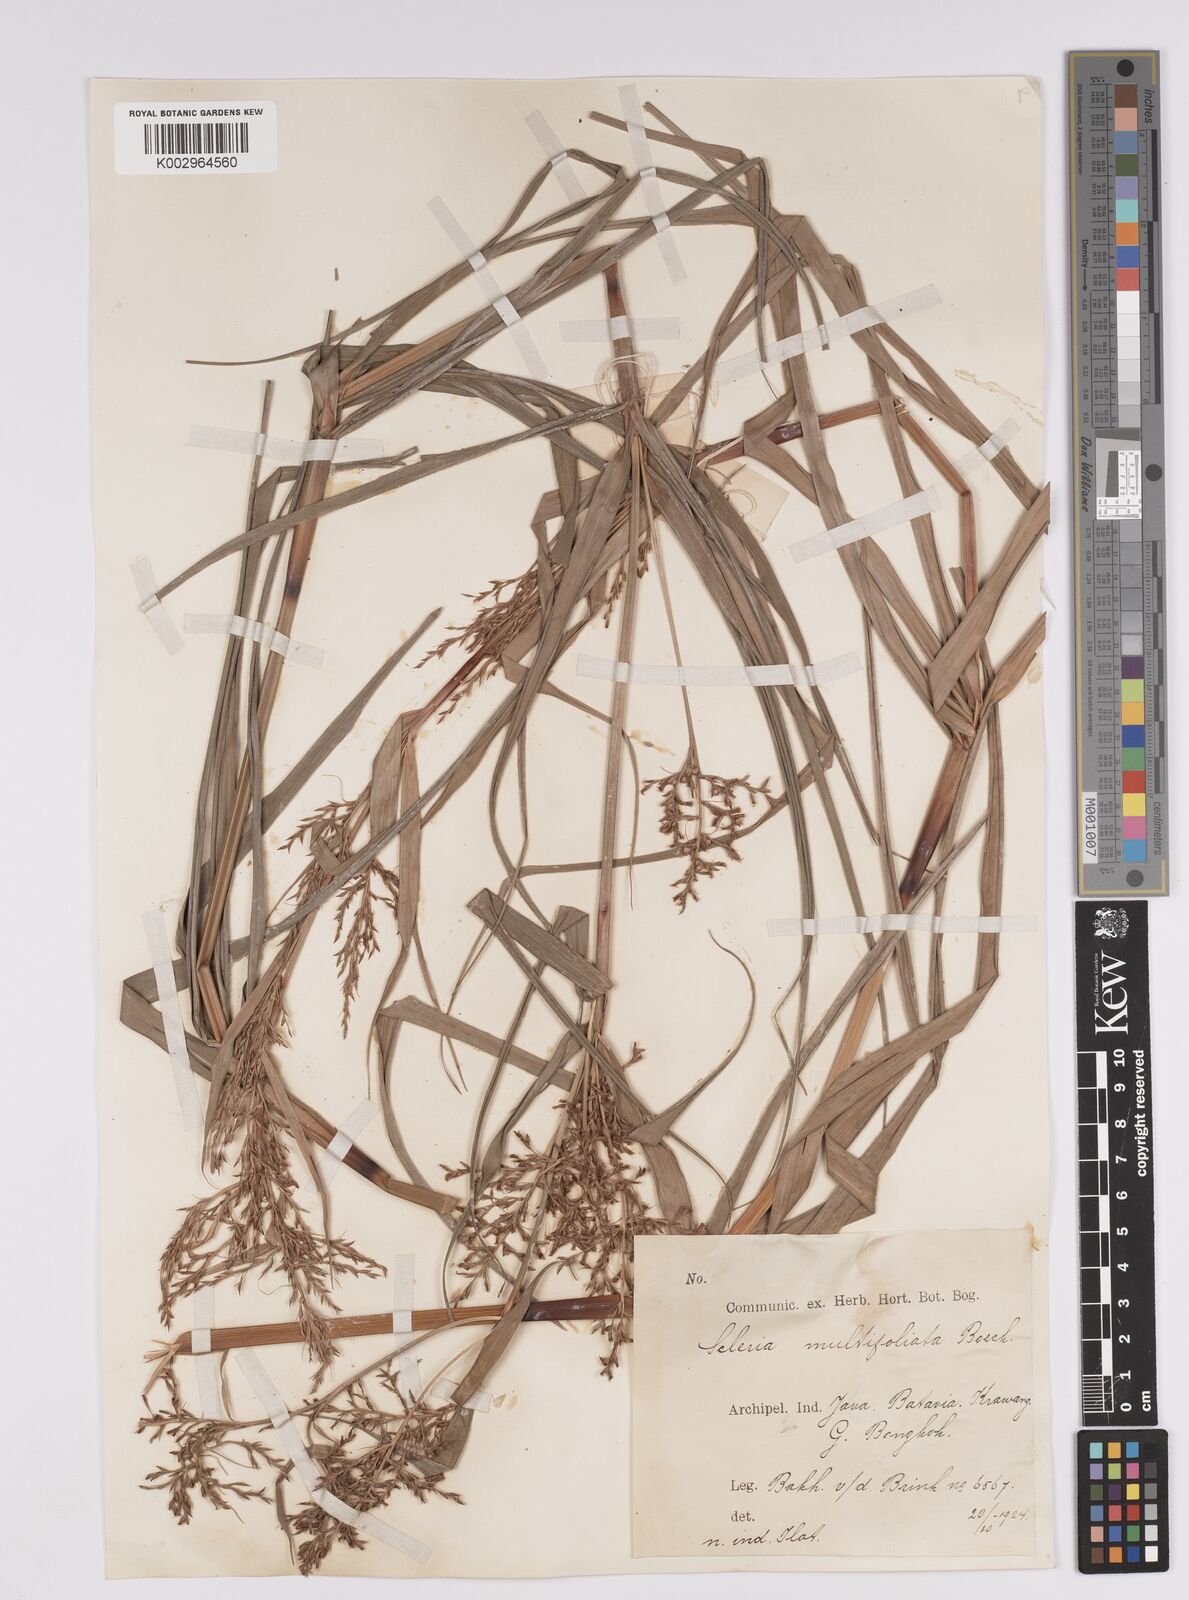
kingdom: Plantae
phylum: Tracheophyta
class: Liliopsida
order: Poales
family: Cyperaceae
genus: Scleria
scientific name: Scleria purpurascens
